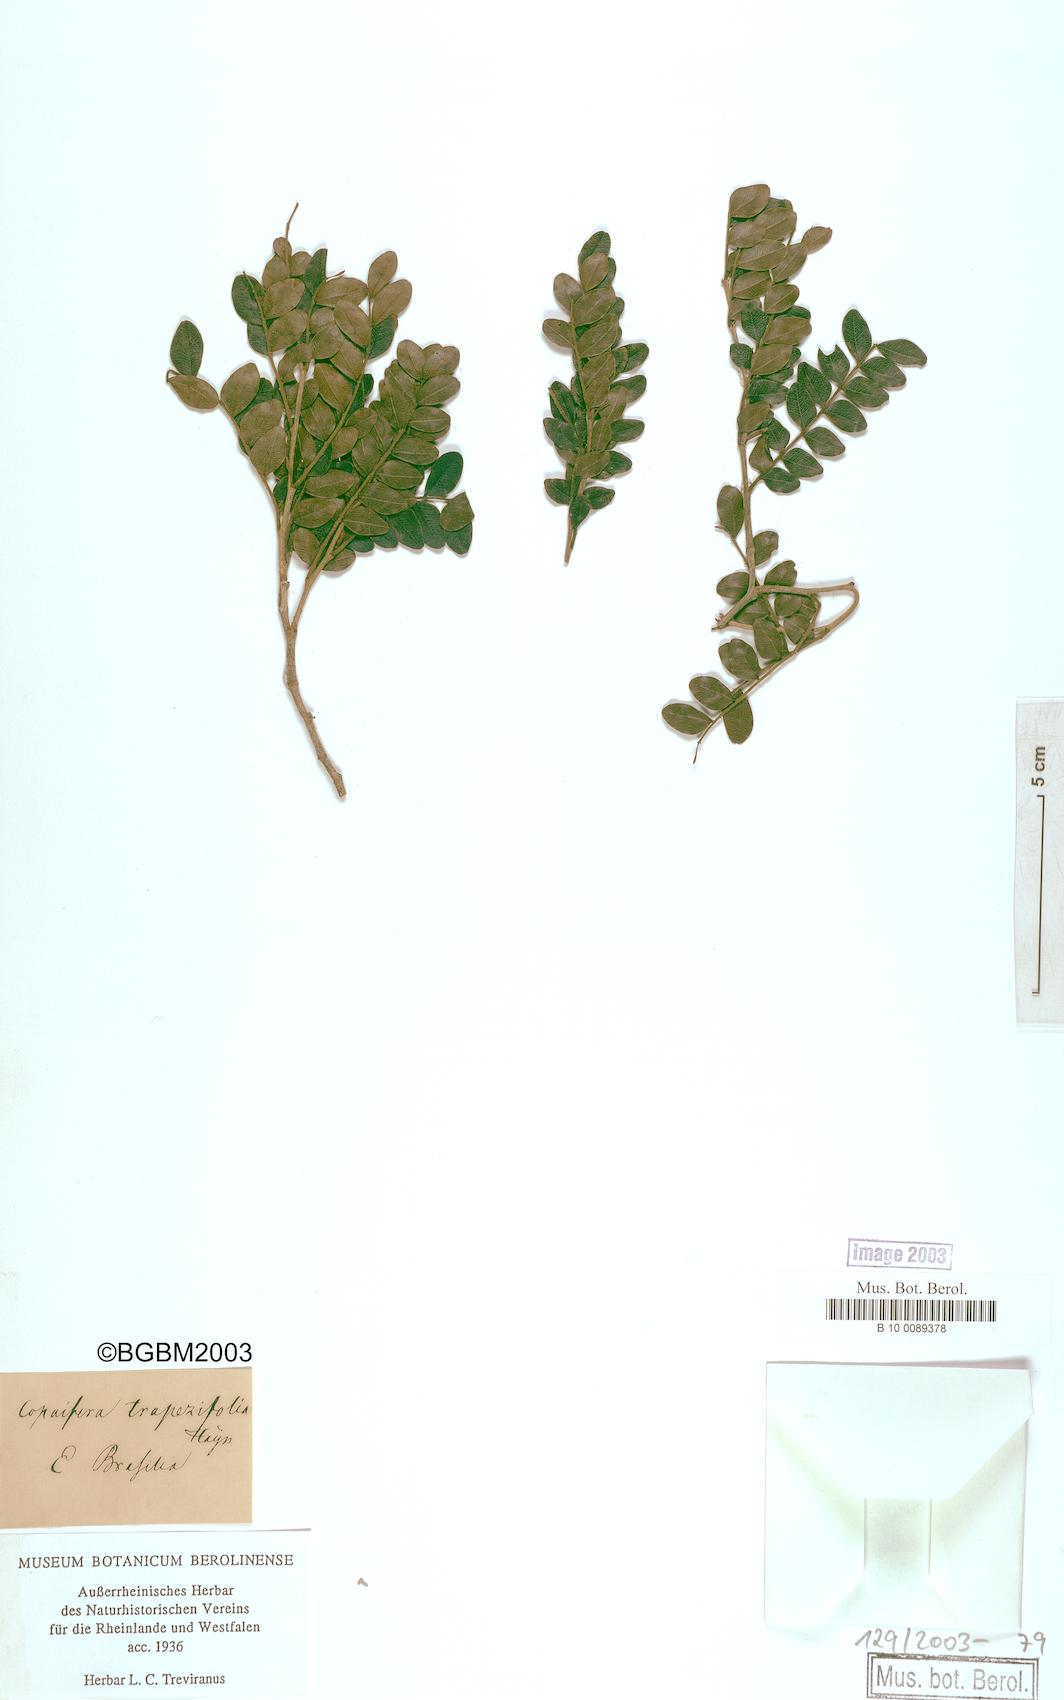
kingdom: Plantae
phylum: Tracheophyta
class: Magnoliopsida
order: Fabales
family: Fabaceae
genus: Copaifera
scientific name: Copaifera trapezifolia
